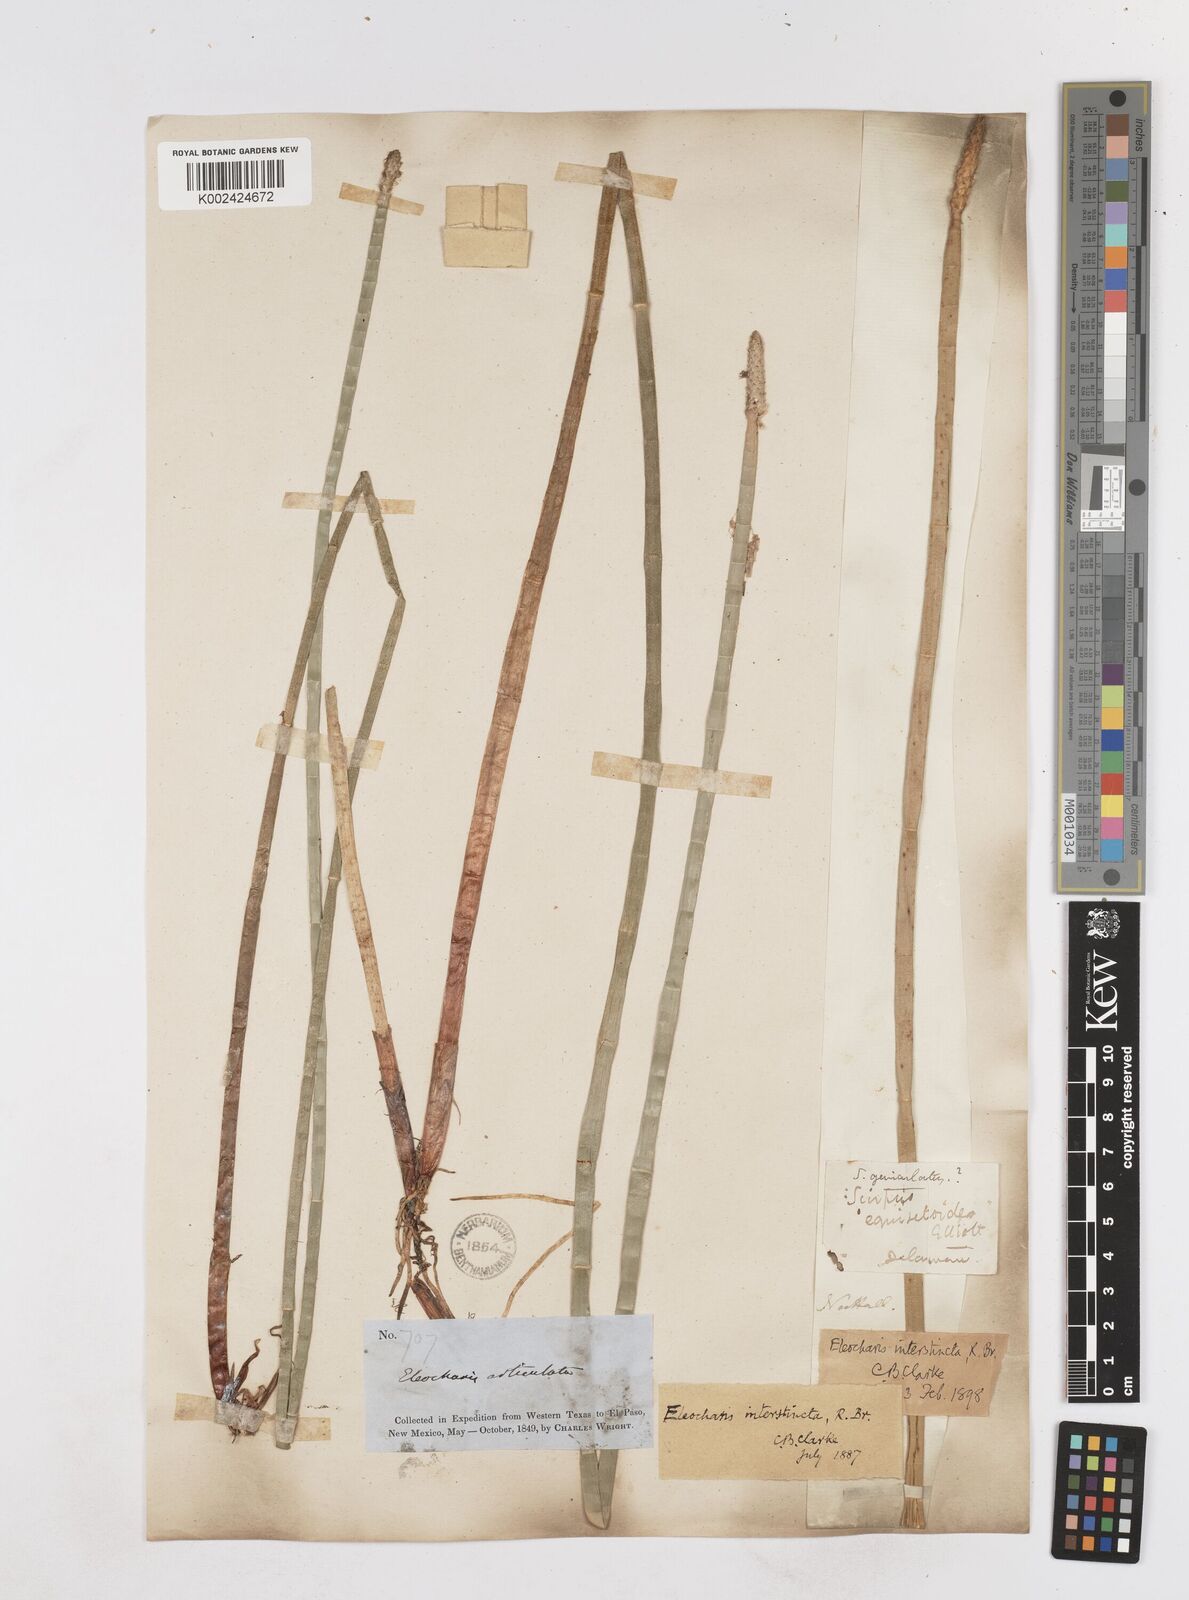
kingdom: Plantae
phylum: Tracheophyta
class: Liliopsida
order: Poales
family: Cyperaceae
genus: Eleocharis
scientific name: Eleocharis interstincta
